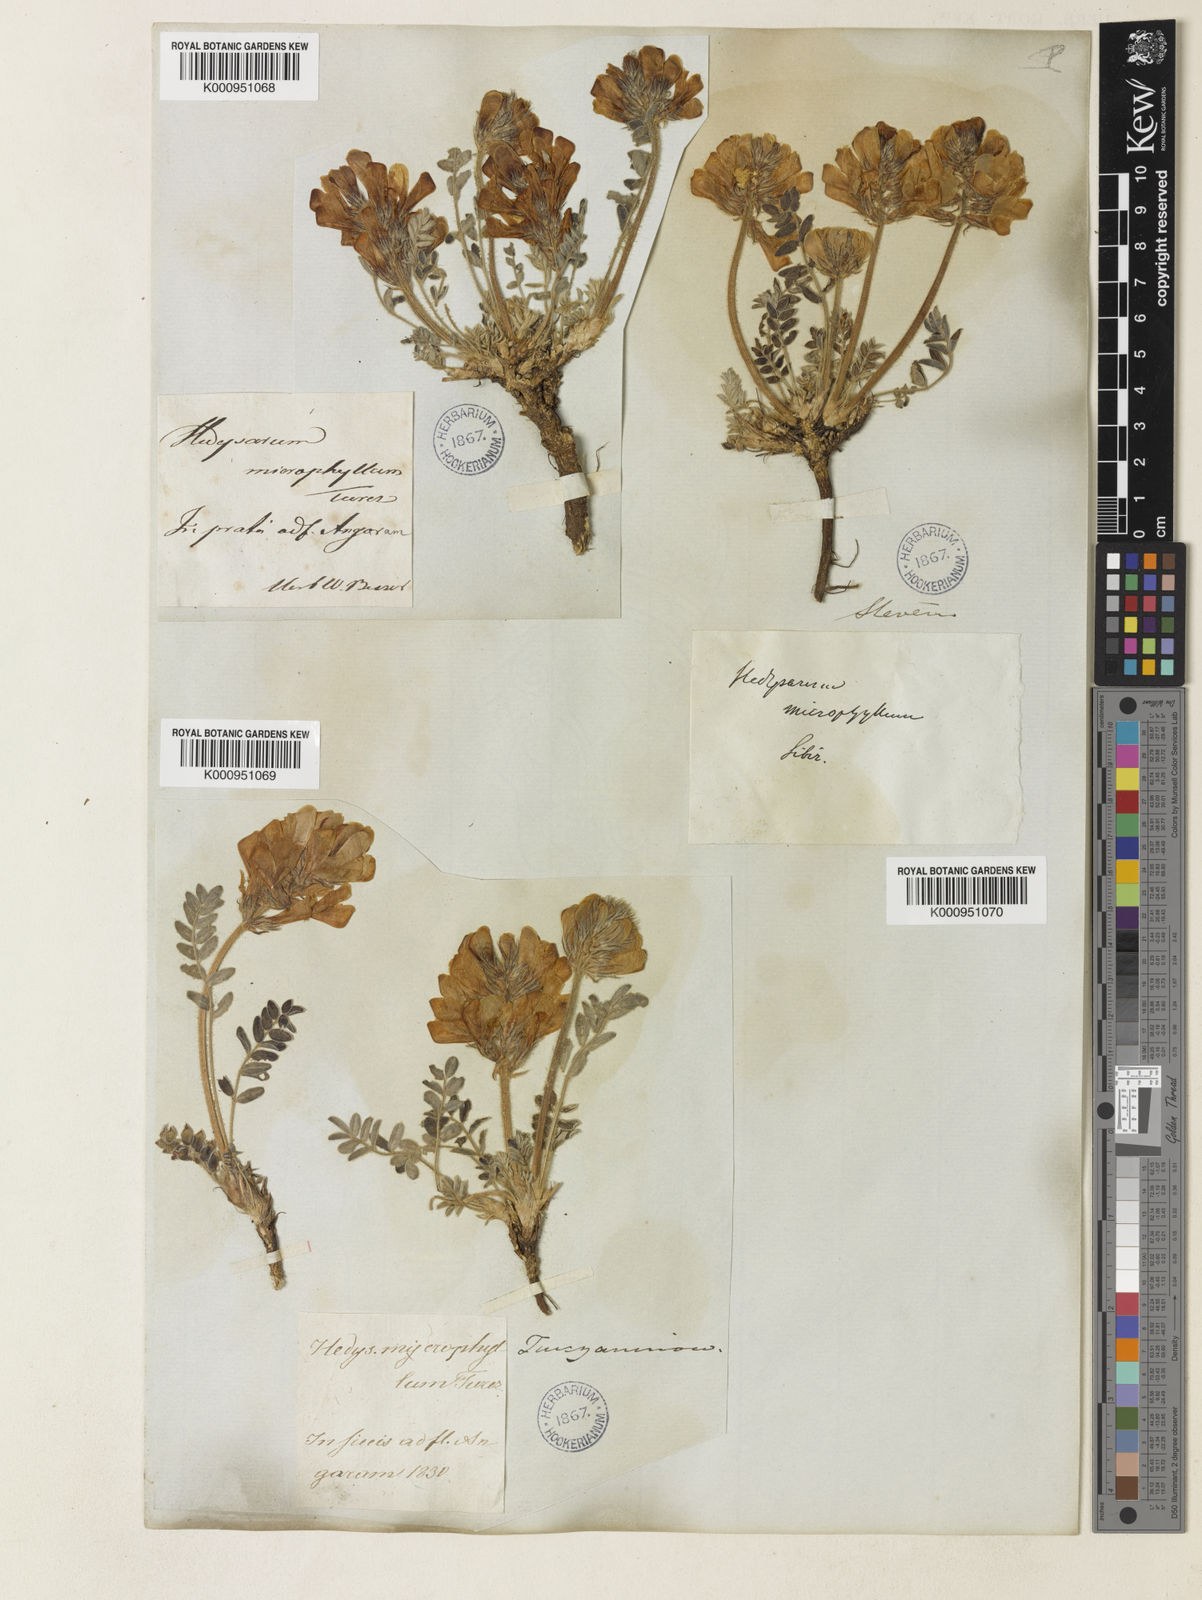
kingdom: Plantae
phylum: Tracheophyta
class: Magnoliopsida
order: Fabales
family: Fabaceae
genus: Hedysarum
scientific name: Hedysarum turczaninovii
